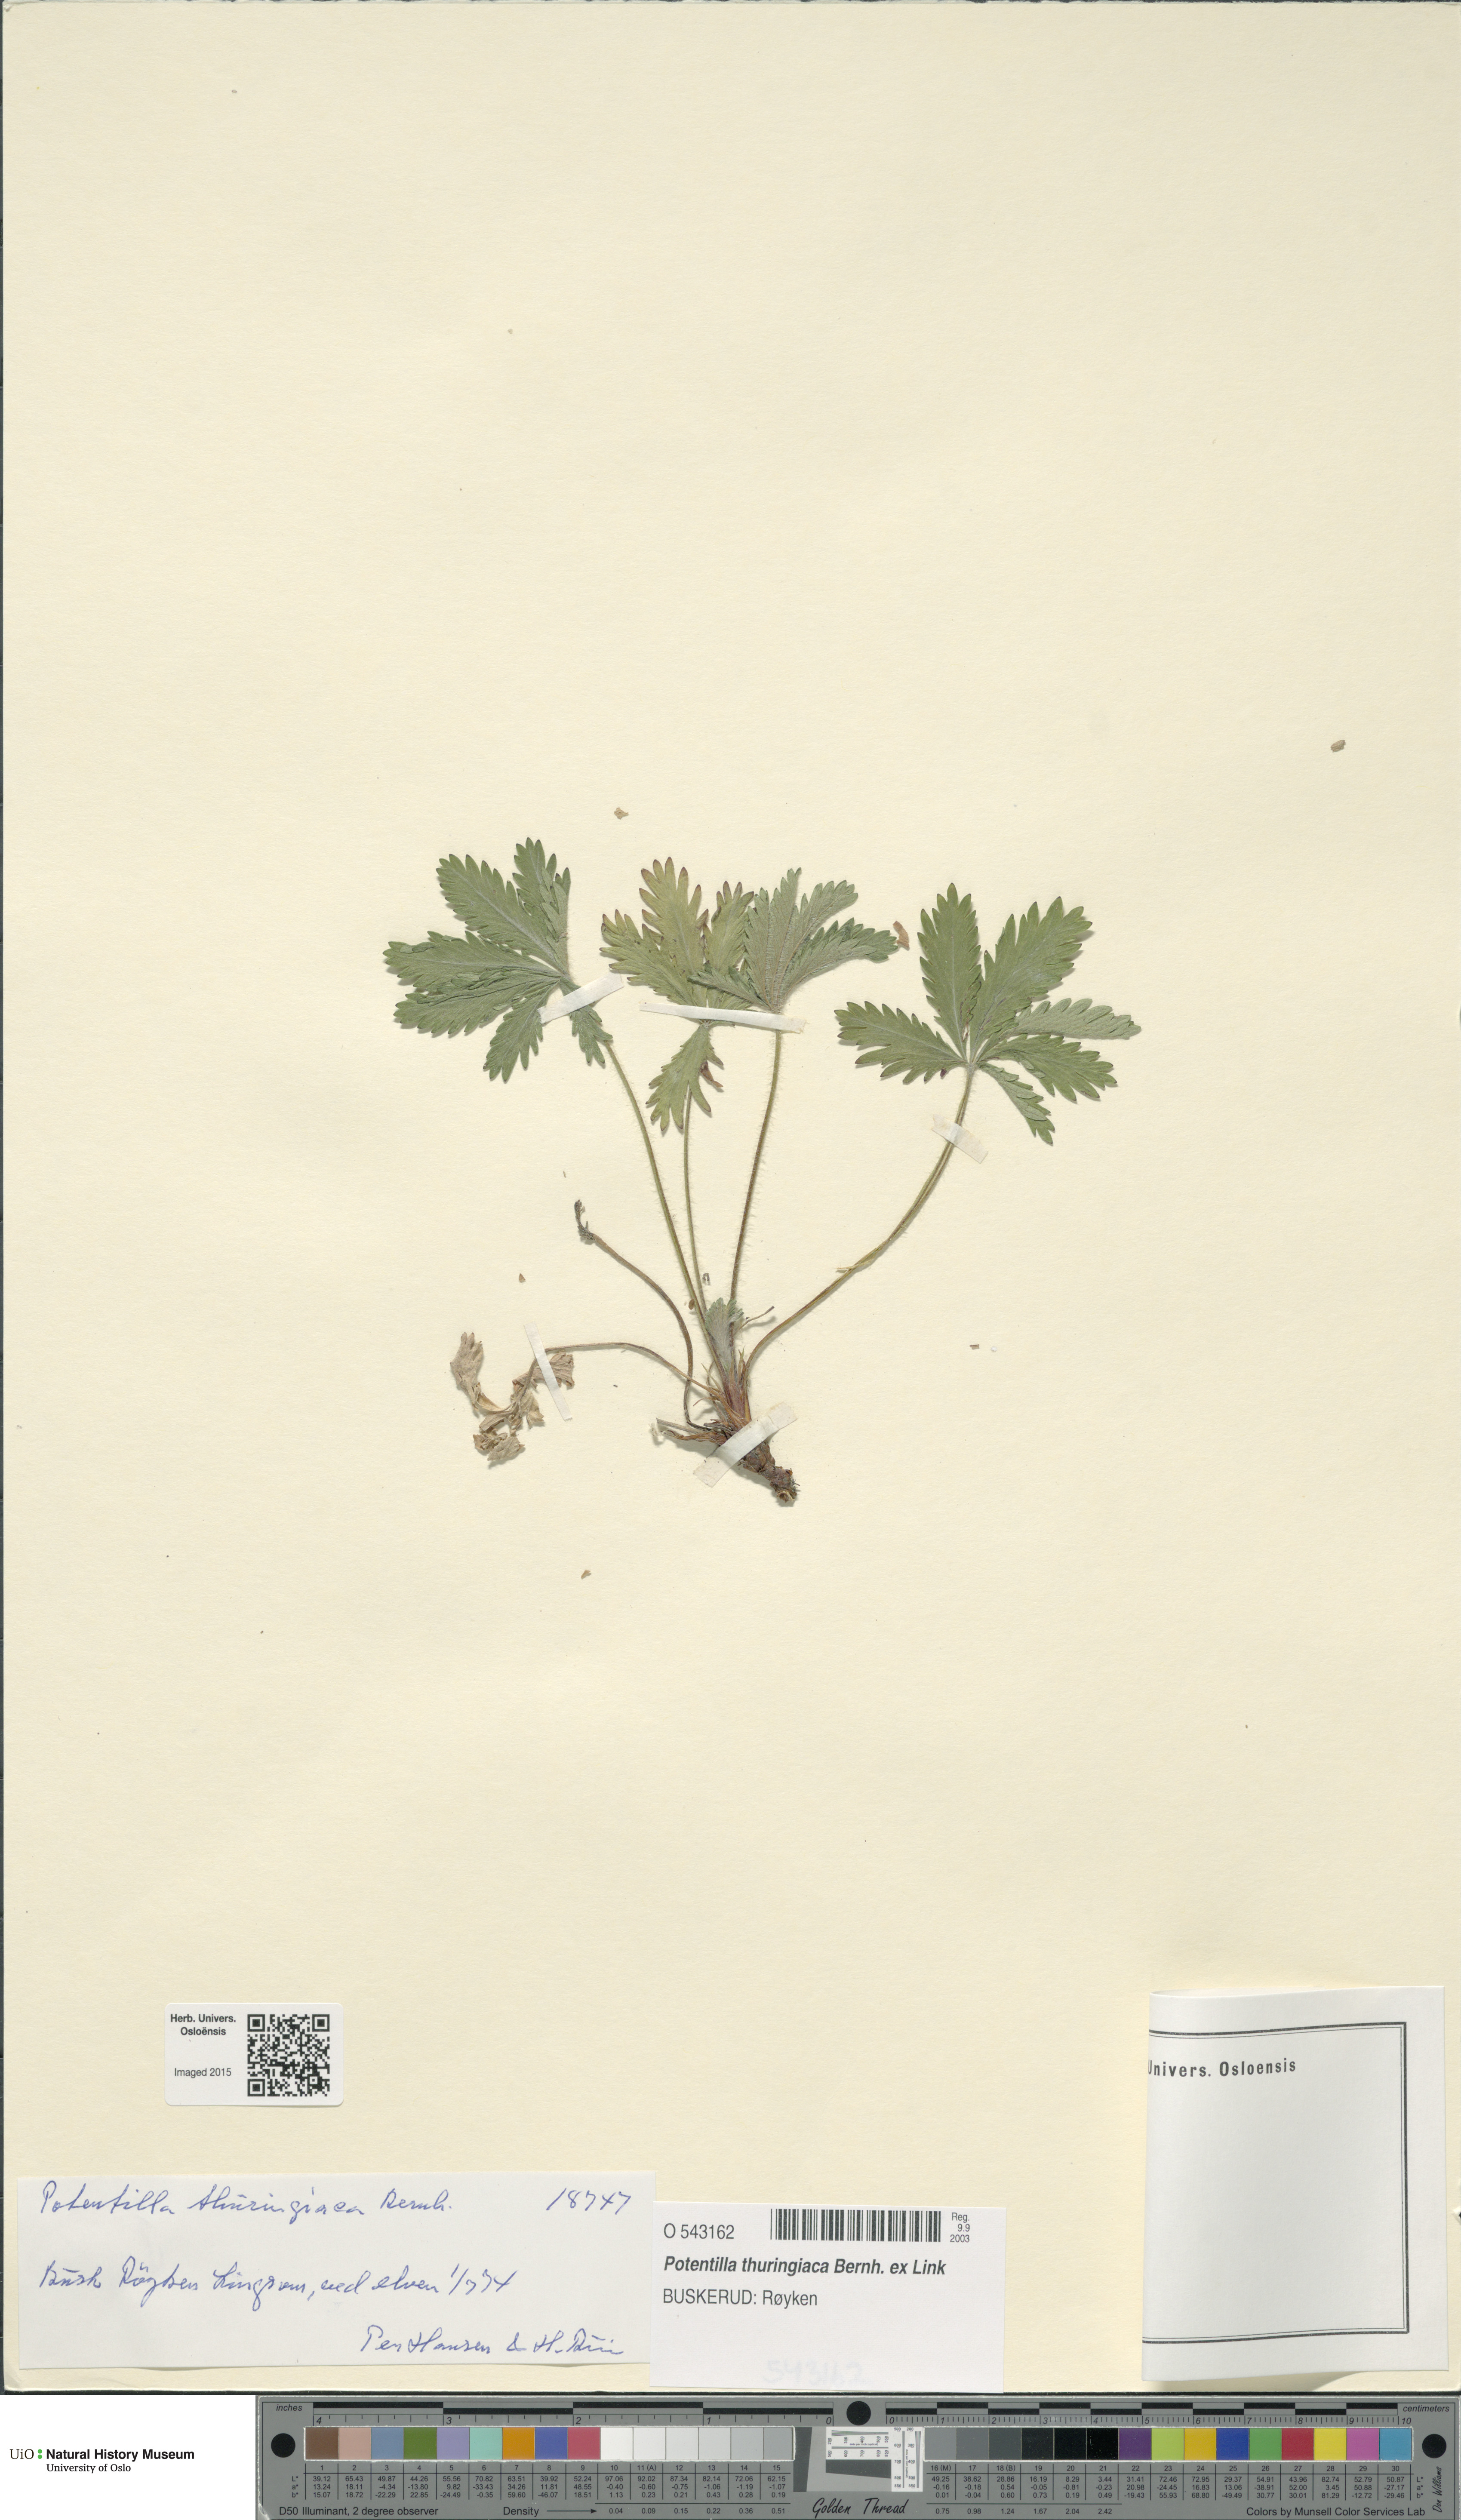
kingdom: Plantae
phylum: Tracheophyta
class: Magnoliopsida
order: Rosales
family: Rosaceae
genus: Potentilla
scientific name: Potentilla thuringiaca
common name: European cinquefoil
